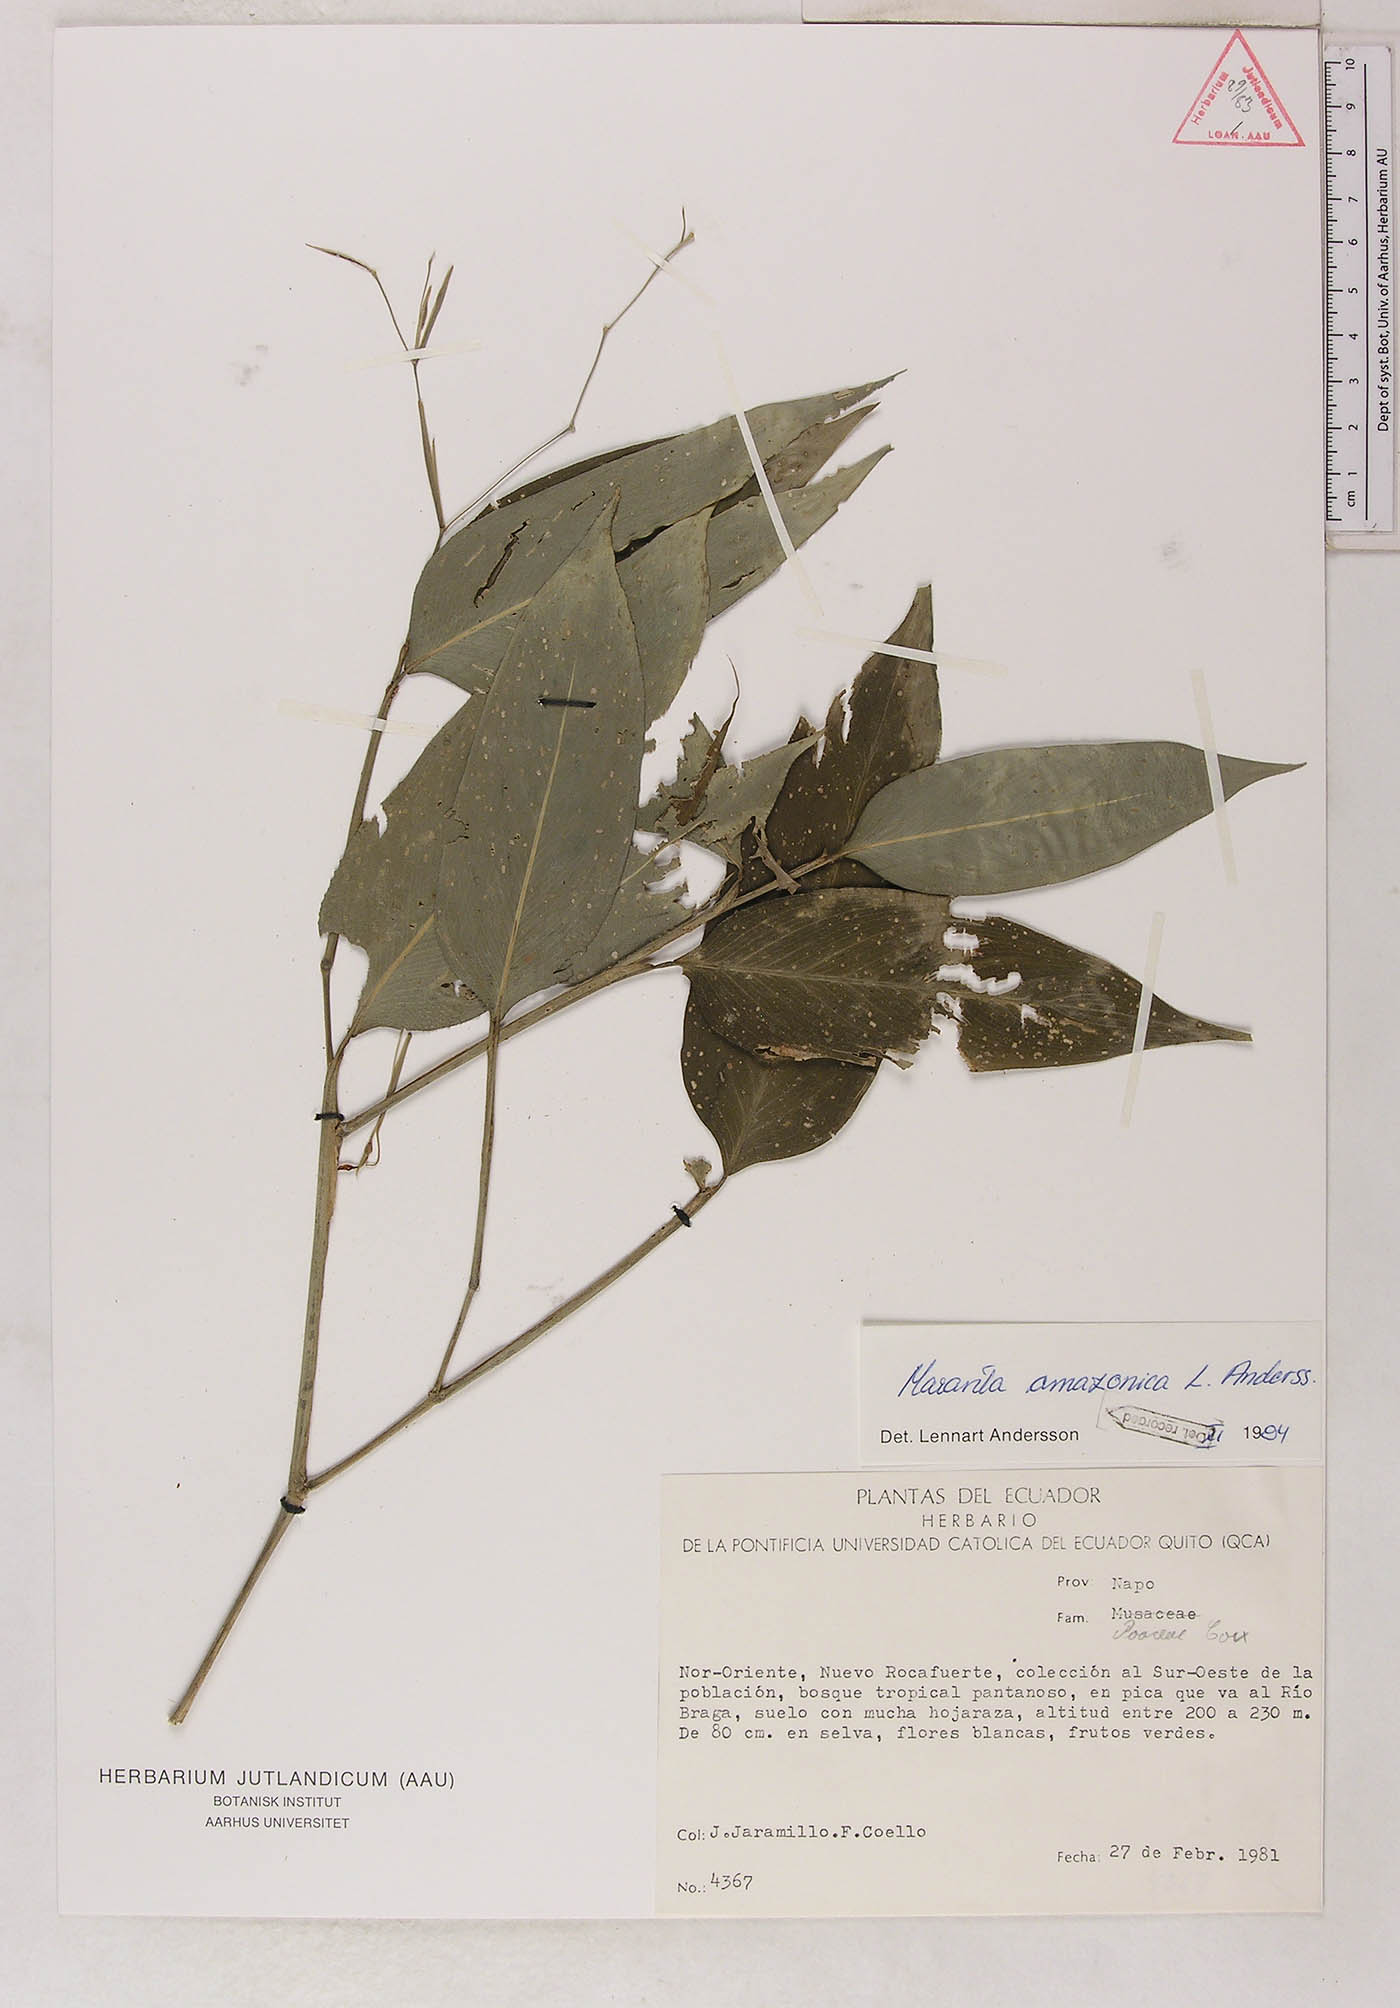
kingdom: Plantae
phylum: Tracheophyta
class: Liliopsida
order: Zingiberales
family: Marantaceae
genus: Maranta
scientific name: Maranta amazonica
